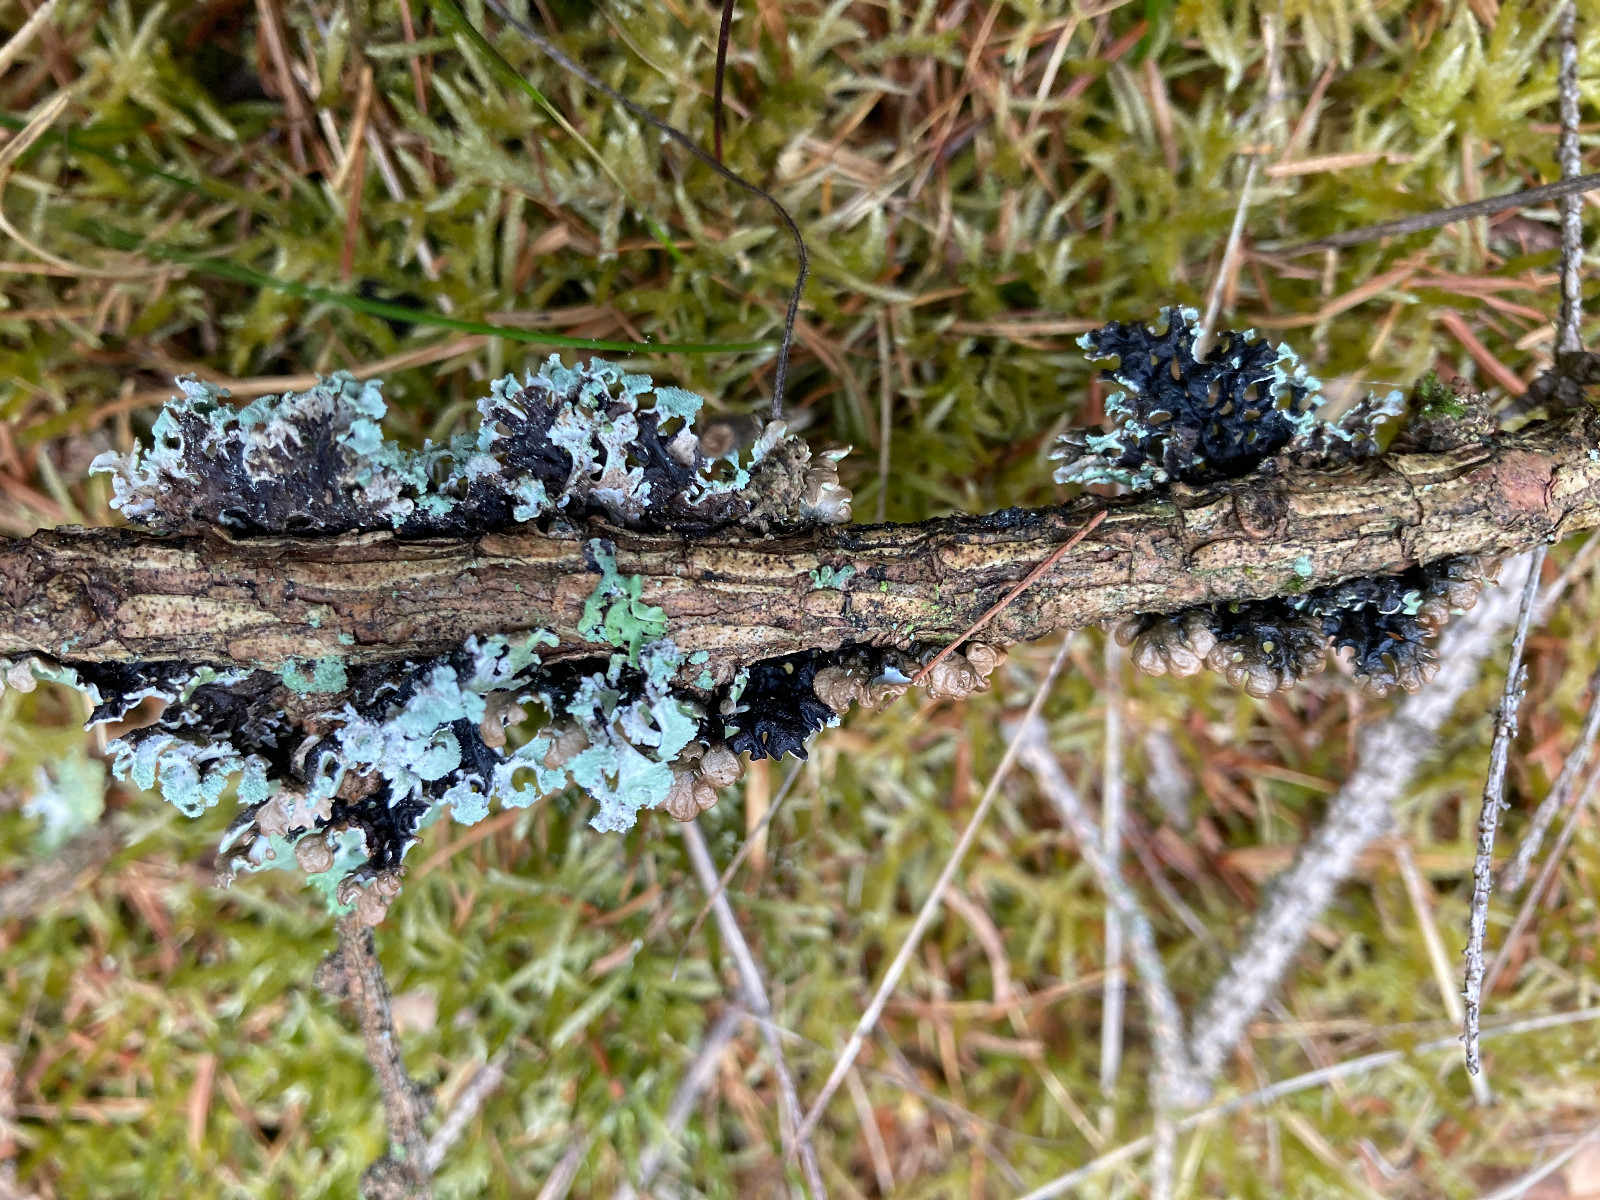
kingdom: Fungi
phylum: Ascomycota
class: Lecanoromycetes
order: Lecanorales
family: Parmeliaceae
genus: Hypogymnia
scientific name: Hypogymnia physodes
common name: almindelig kvistlav
